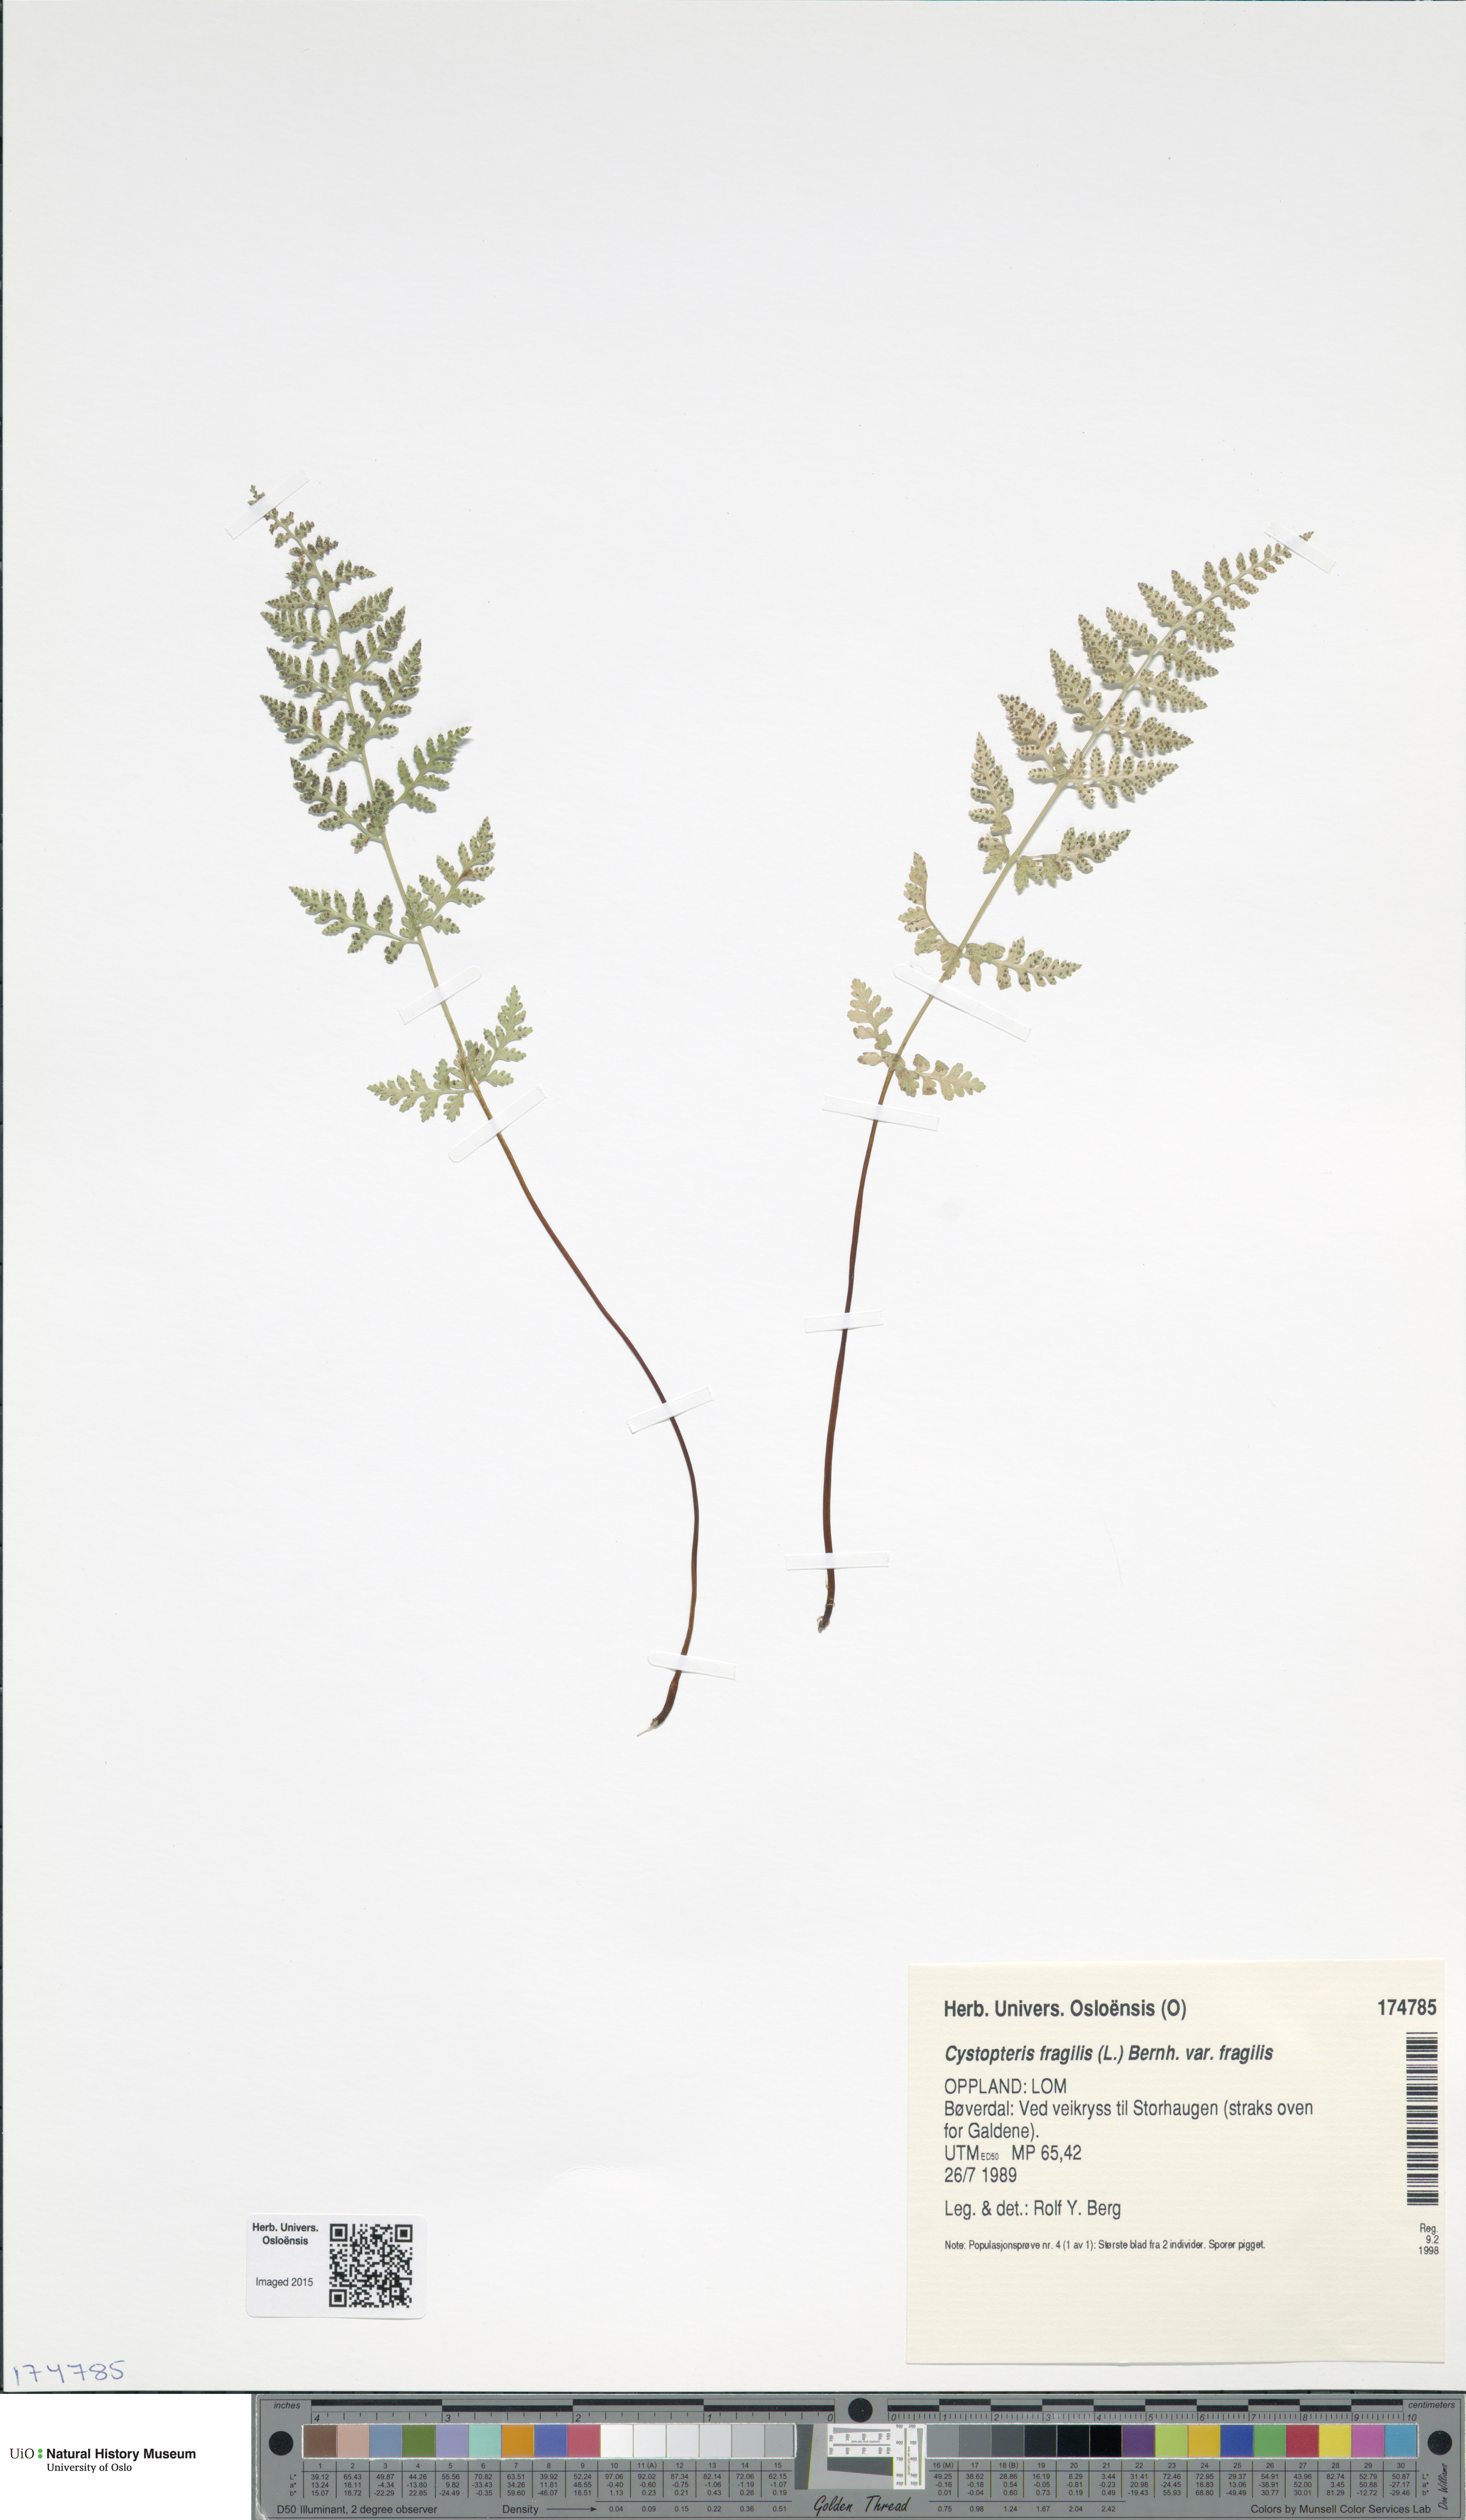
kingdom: Plantae
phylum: Tracheophyta
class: Polypodiopsida
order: Polypodiales
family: Cystopteridaceae
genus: Cystopteris
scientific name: Cystopteris fragilis
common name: Brittle bladder fern
